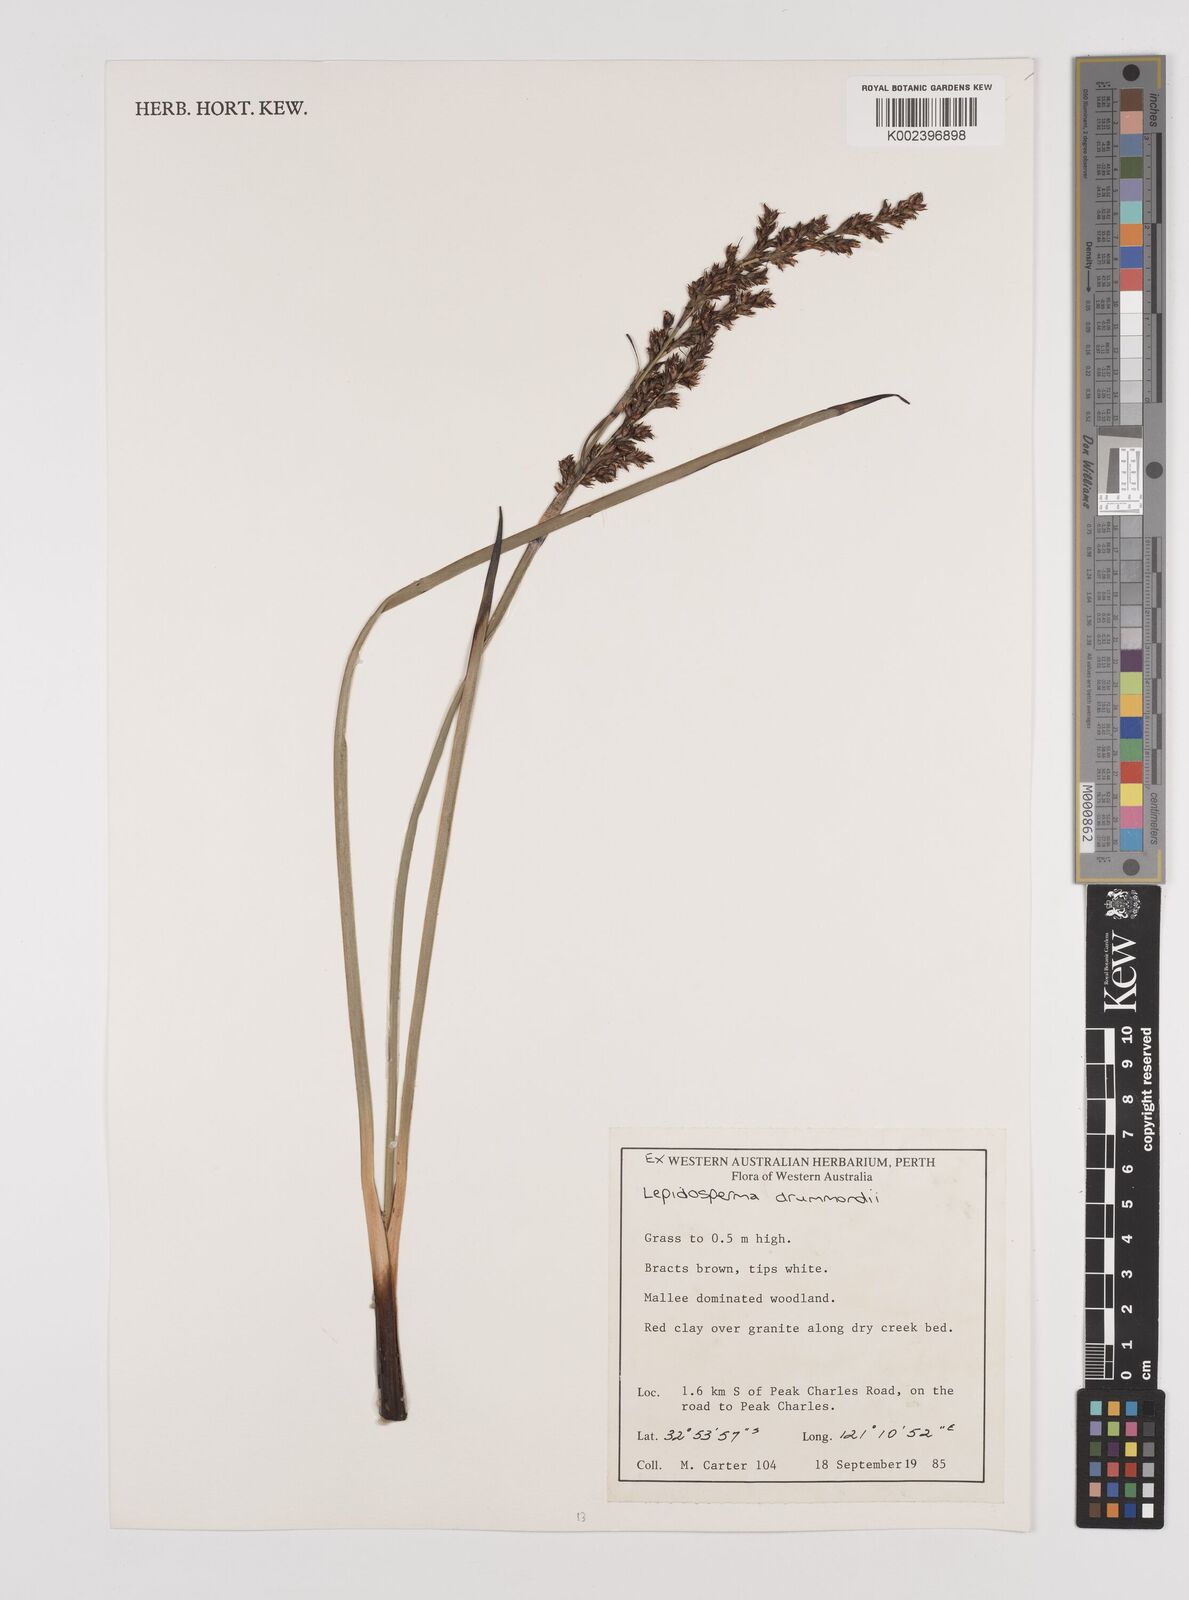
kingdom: Plantae
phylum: Tracheophyta
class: Liliopsida
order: Poales
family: Cyperaceae
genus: Lepidosperma
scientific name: Lepidosperma drummondii
